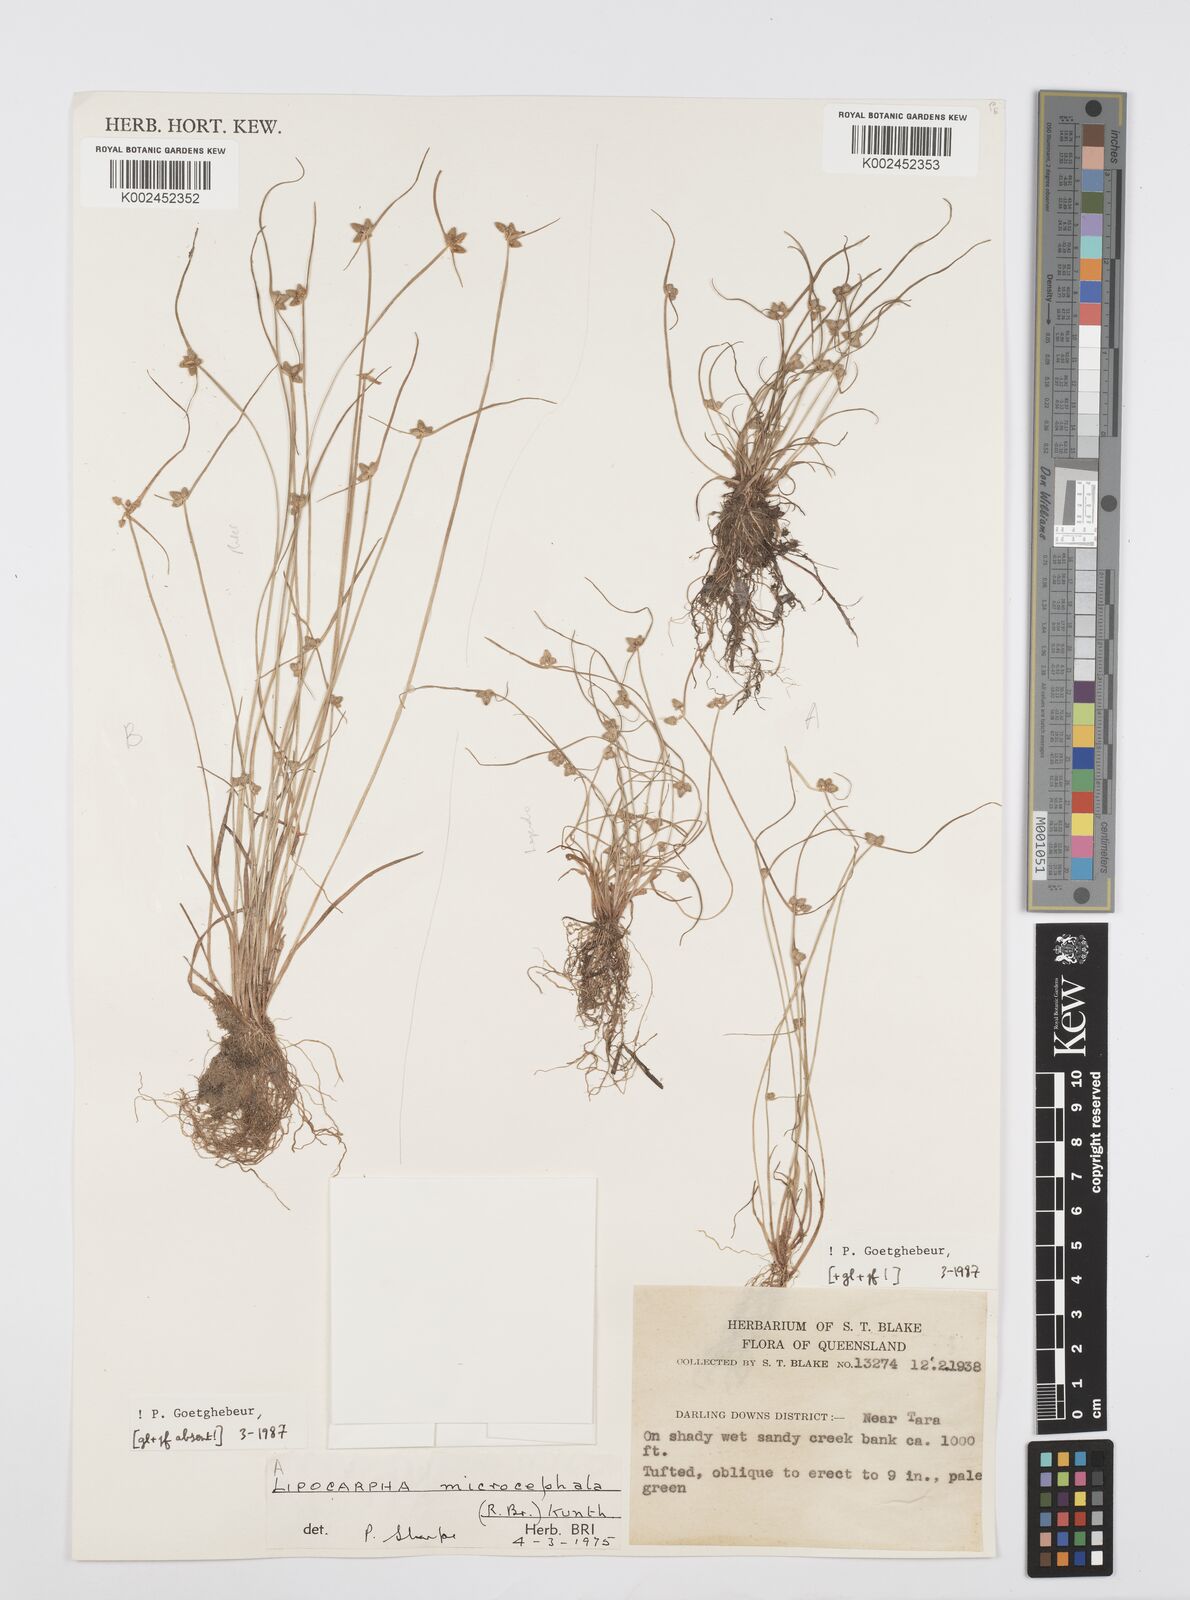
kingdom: Plantae
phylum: Tracheophyta
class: Liliopsida
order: Poales
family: Cyperaceae
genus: Cyperus
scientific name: Cyperus microcephalus
